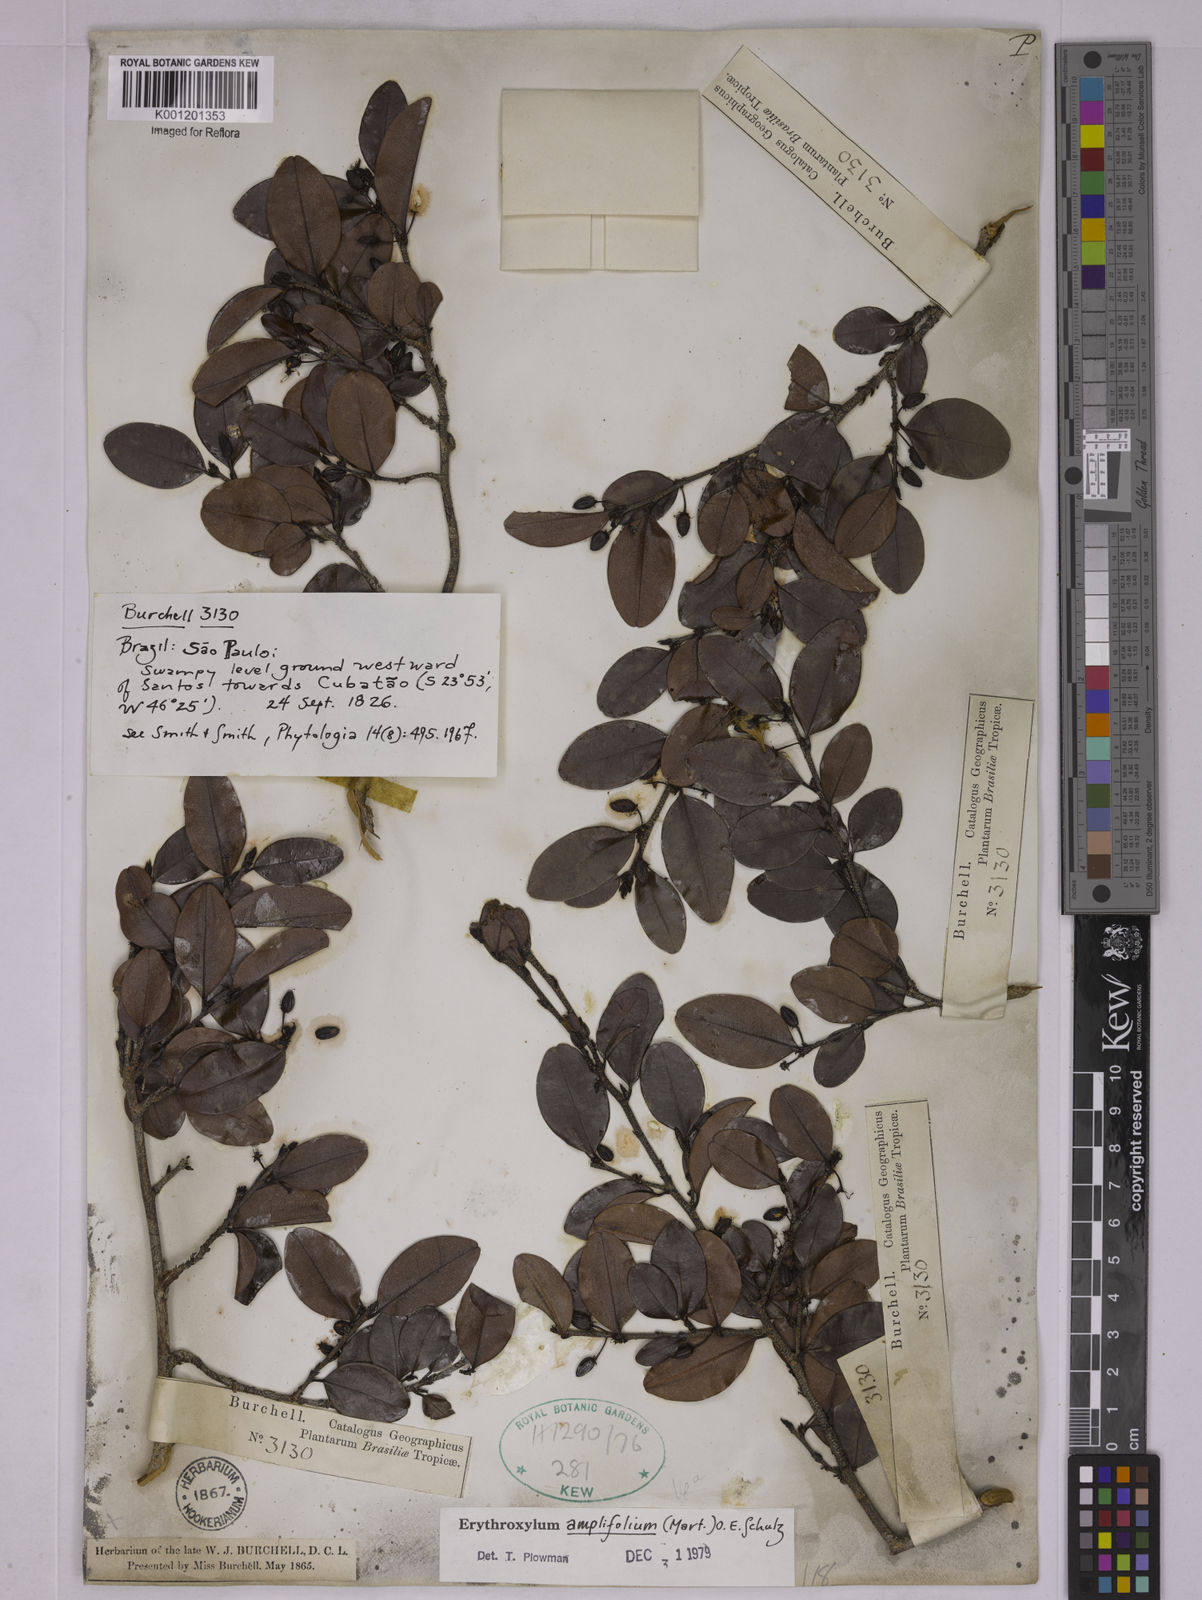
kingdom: Plantae
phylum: Tracheophyta
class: Magnoliopsida
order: Malpighiales
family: Erythroxylaceae
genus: Erythroxylum
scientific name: Erythroxylum
